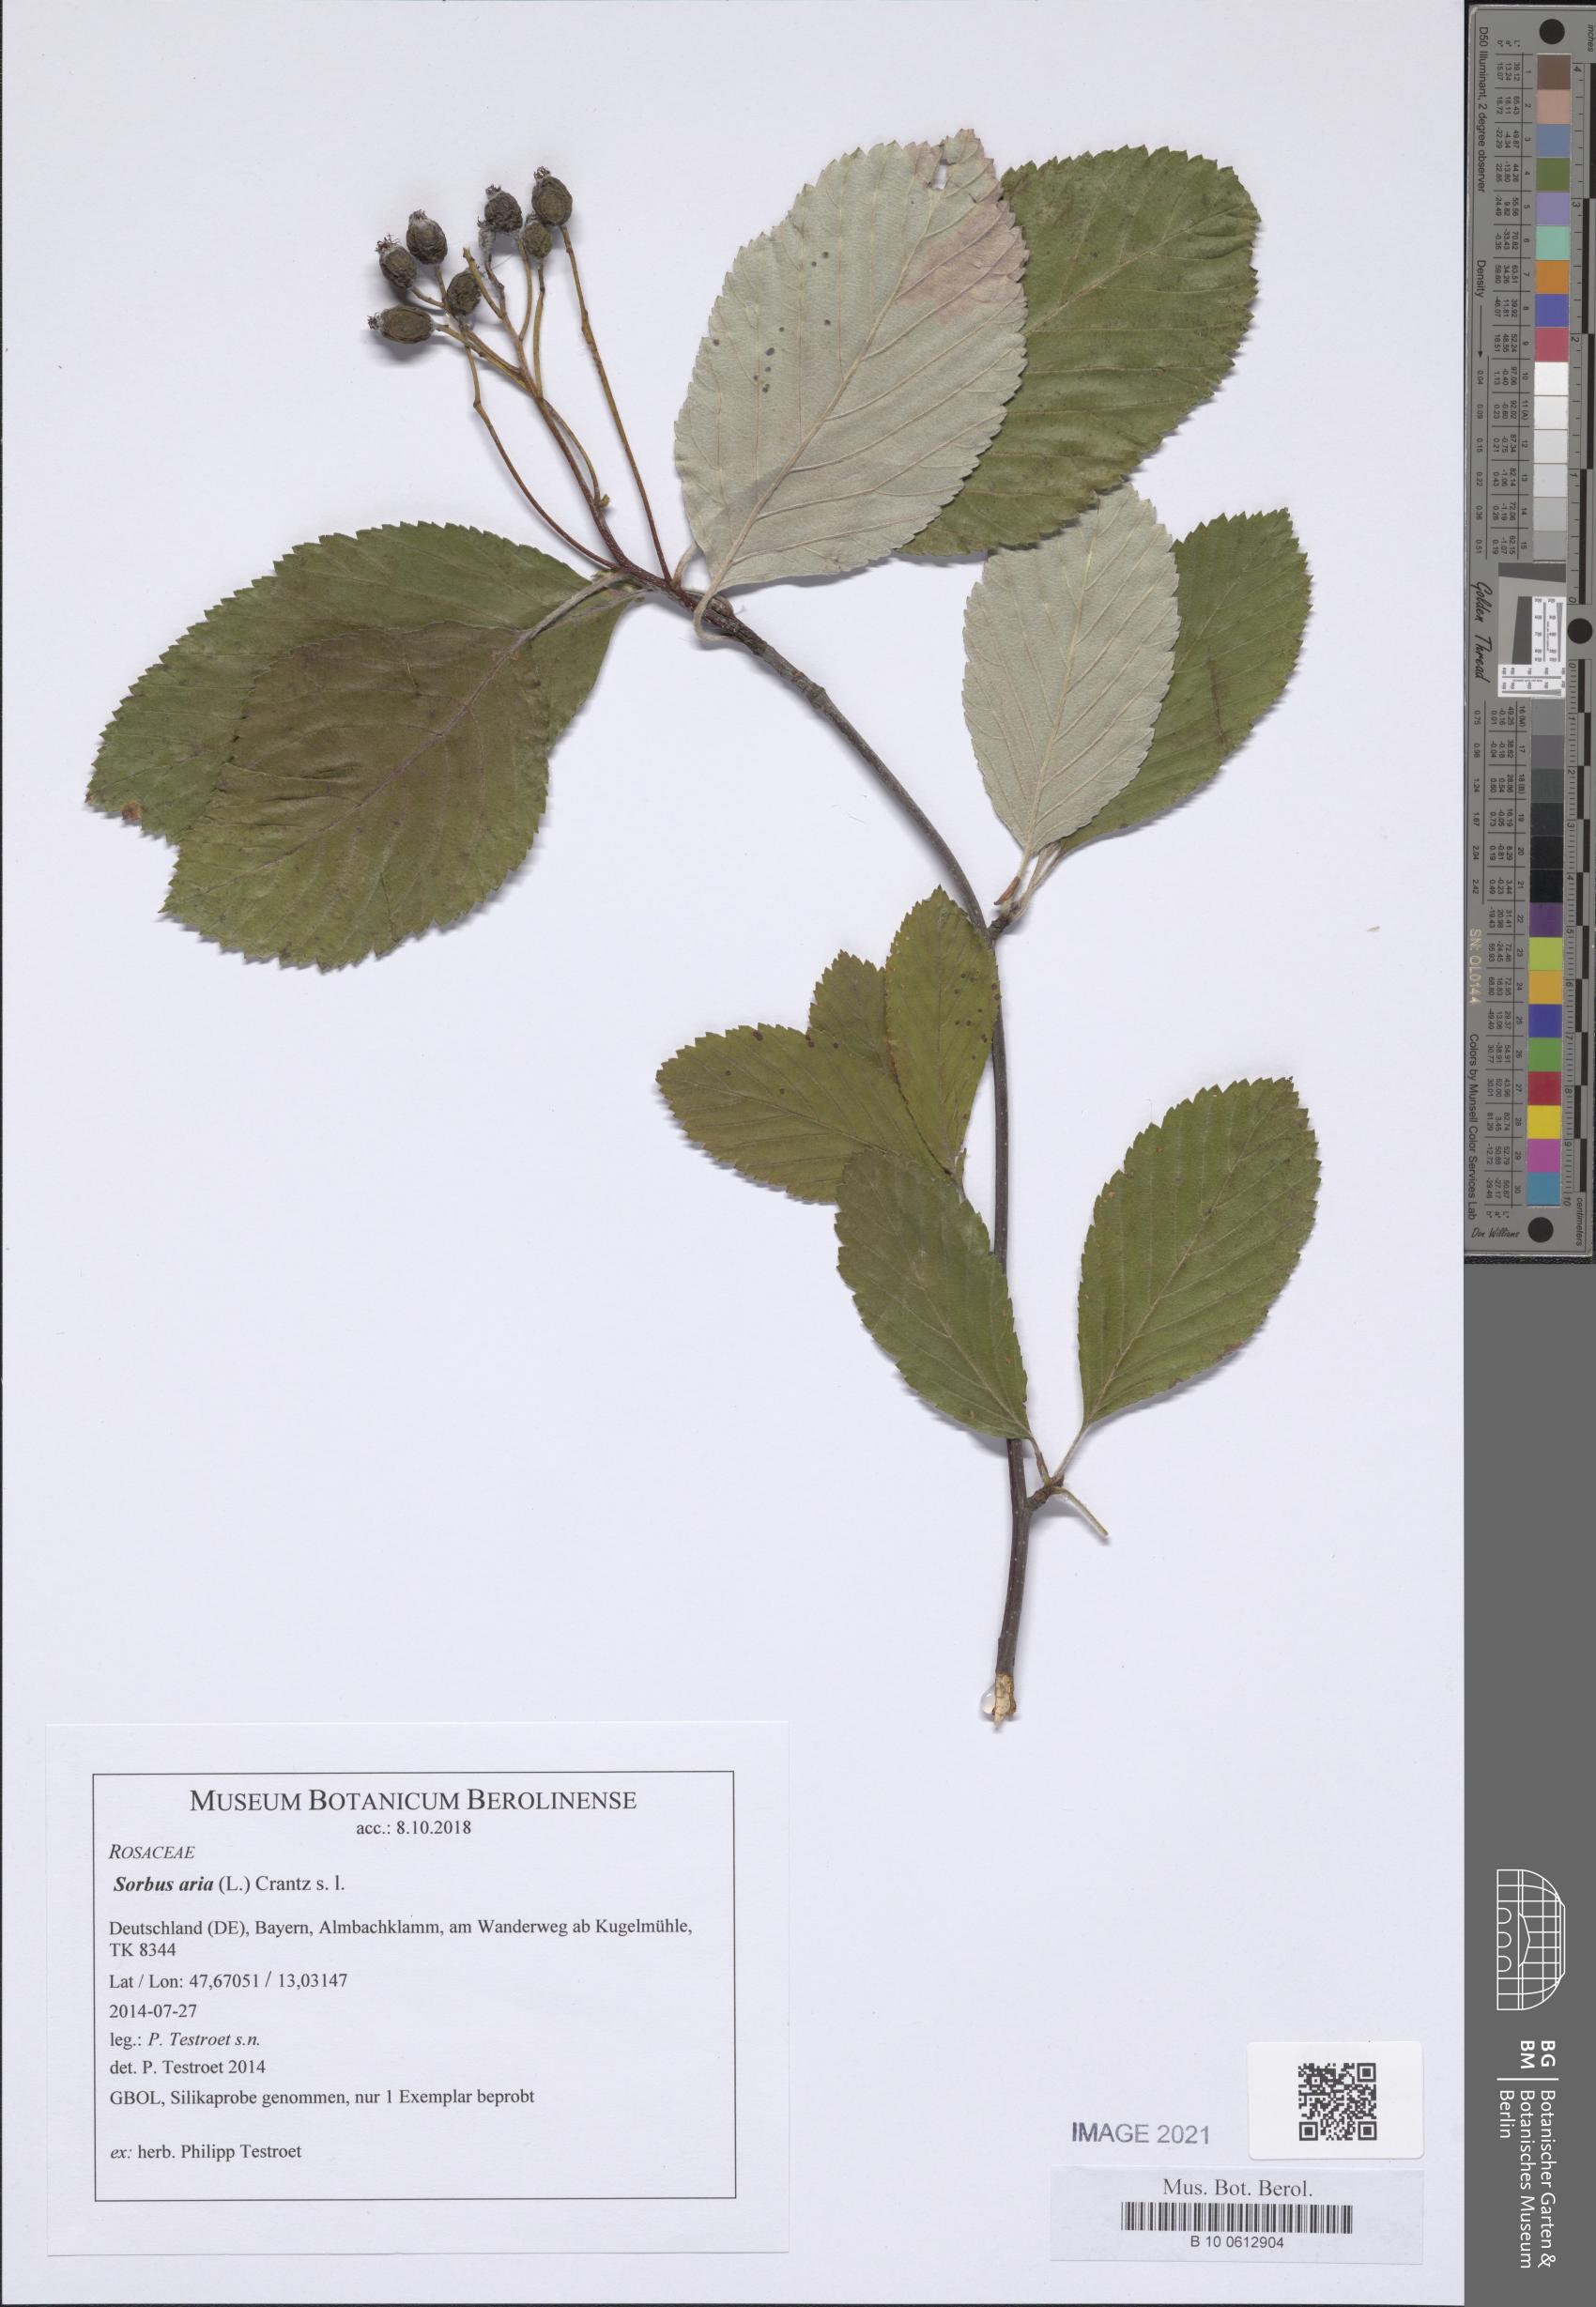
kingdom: Plantae
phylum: Tracheophyta
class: Magnoliopsida
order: Rosales
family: Rosaceae
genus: Aria
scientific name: Aria edulis
